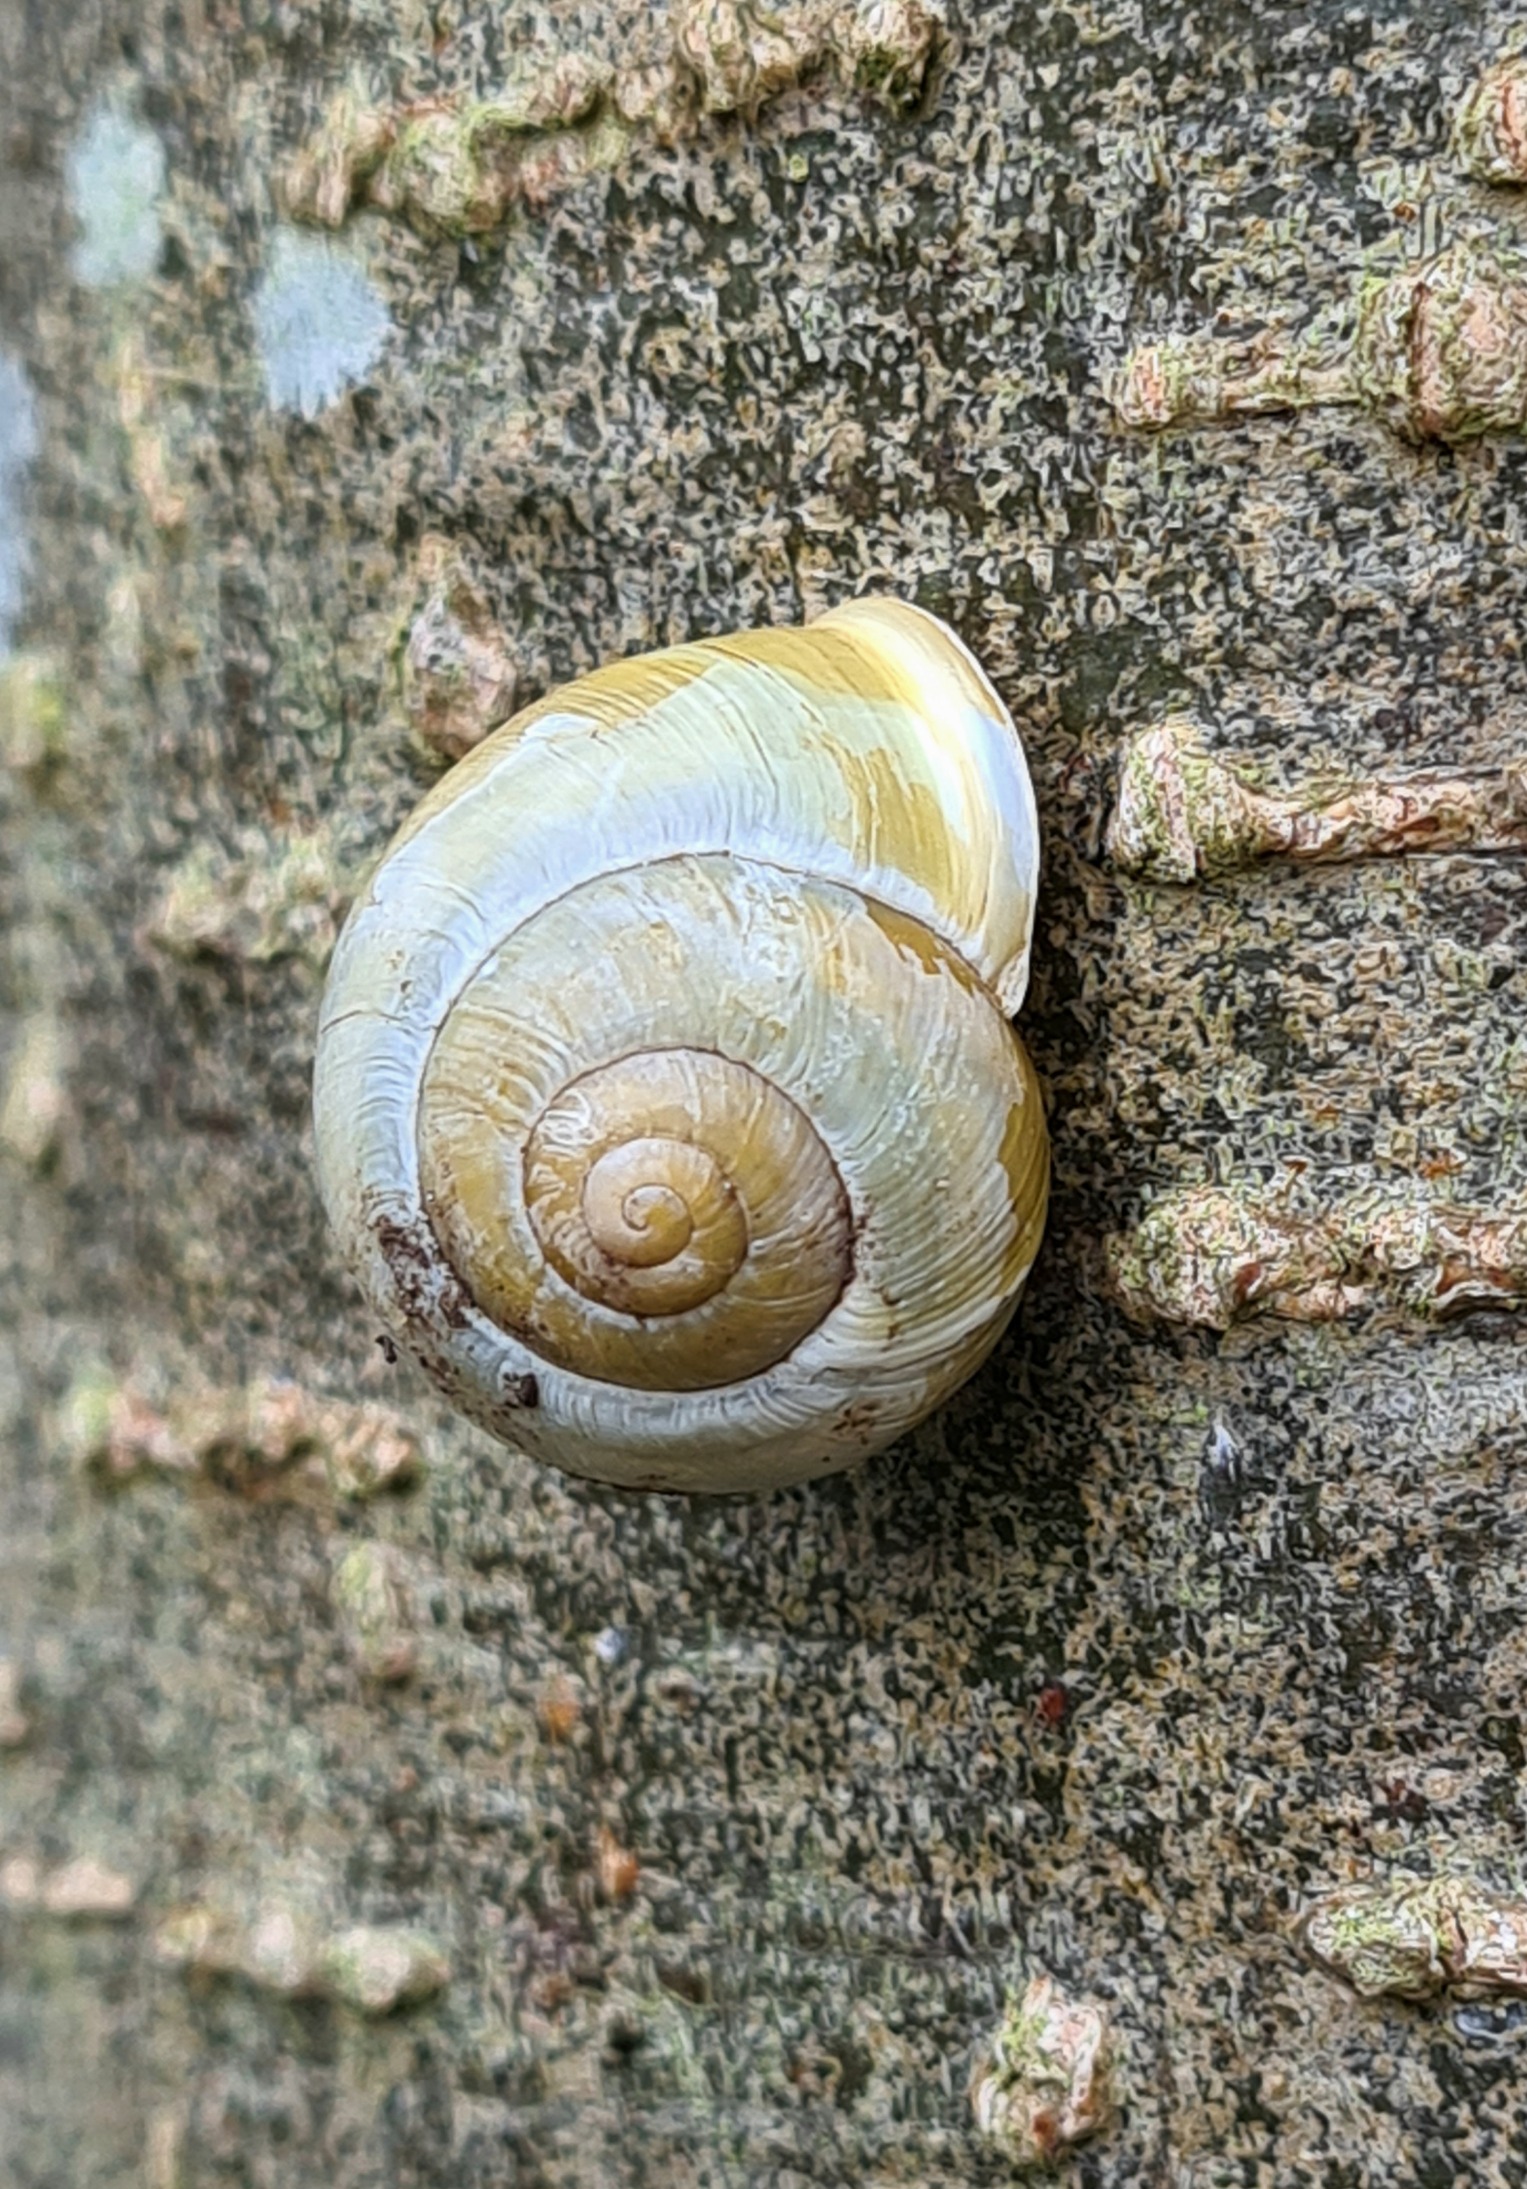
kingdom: Animalia
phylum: Mollusca
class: Gastropoda
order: Stylommatophora
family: Helicidae
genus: Cepaea
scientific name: Cepaea hortensis
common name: Havesnegl
